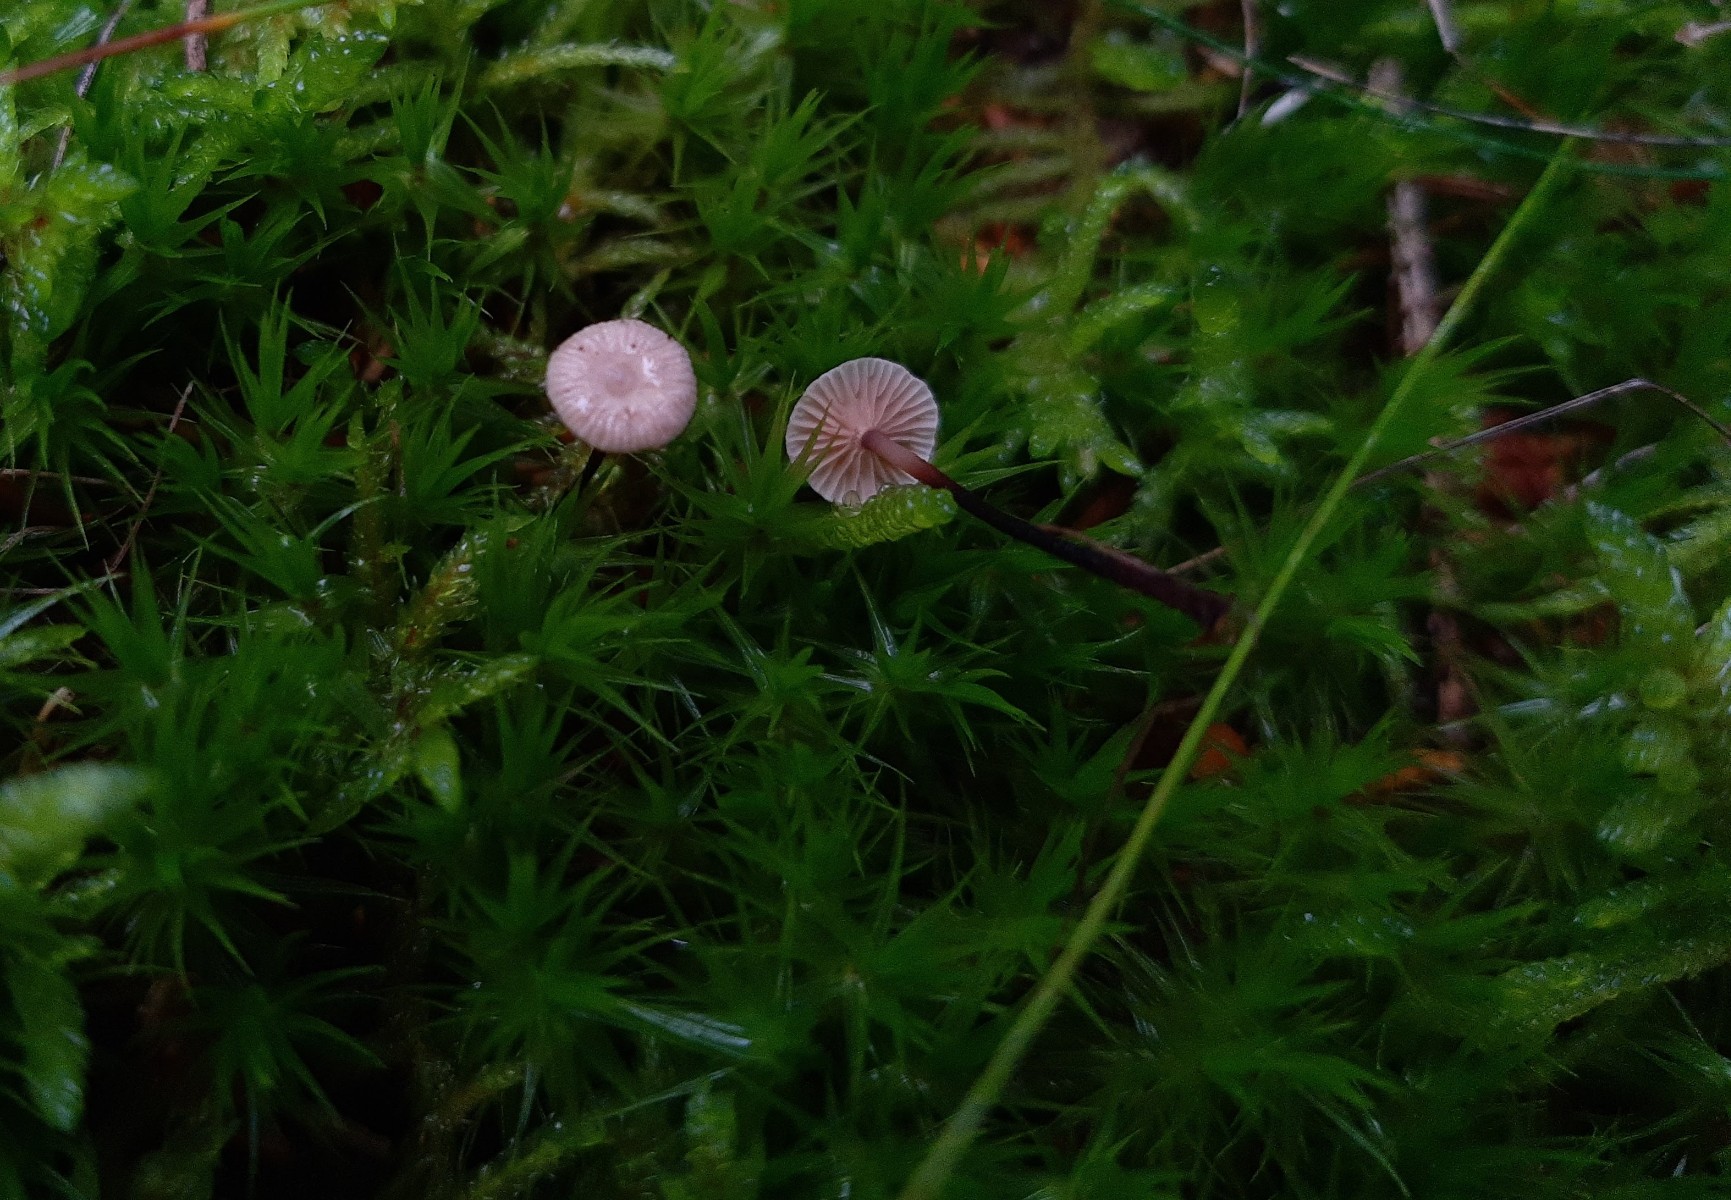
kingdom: Fungi
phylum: Basidiomycota
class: Agaricomycetes
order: Agaricales
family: Omphalotaceae
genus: Paragymnopus
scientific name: Paragymnopus perforans
